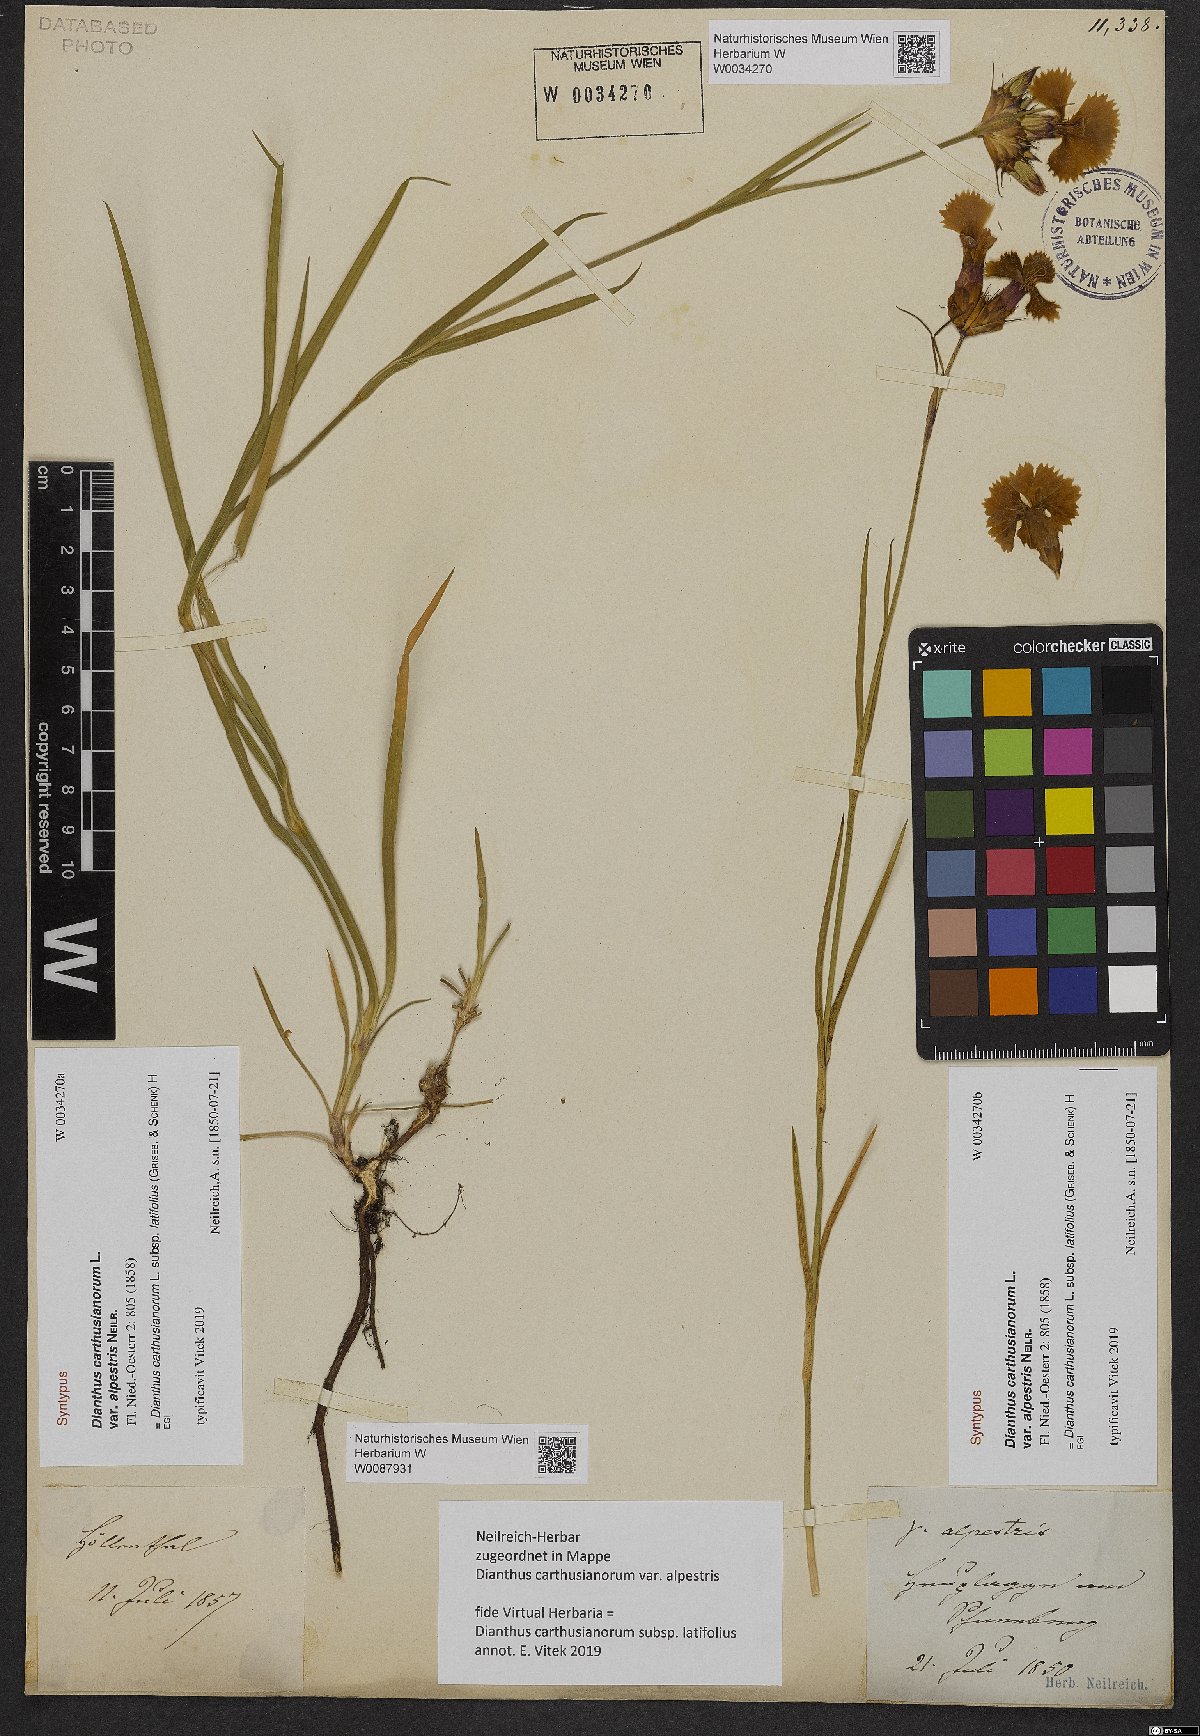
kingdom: Plantae
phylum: Tracheophyta
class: Magnoliopsida
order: Caryophyllales
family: Caryophyllaceae
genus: Dianthus
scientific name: Dianthus carthusianorum
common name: Carthusian pink
